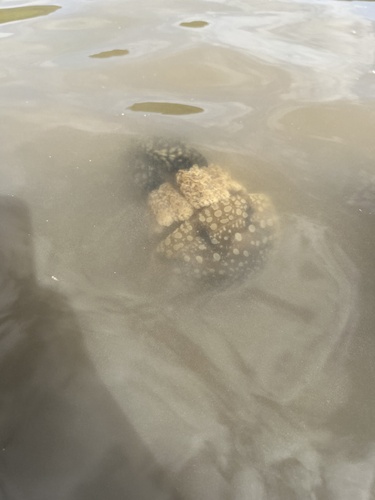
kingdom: Animalia
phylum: Cnidaria
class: Scyphozoa
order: Rhizostomeae
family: Mastigiidae
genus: Mastigias
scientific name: Mastigias papua
